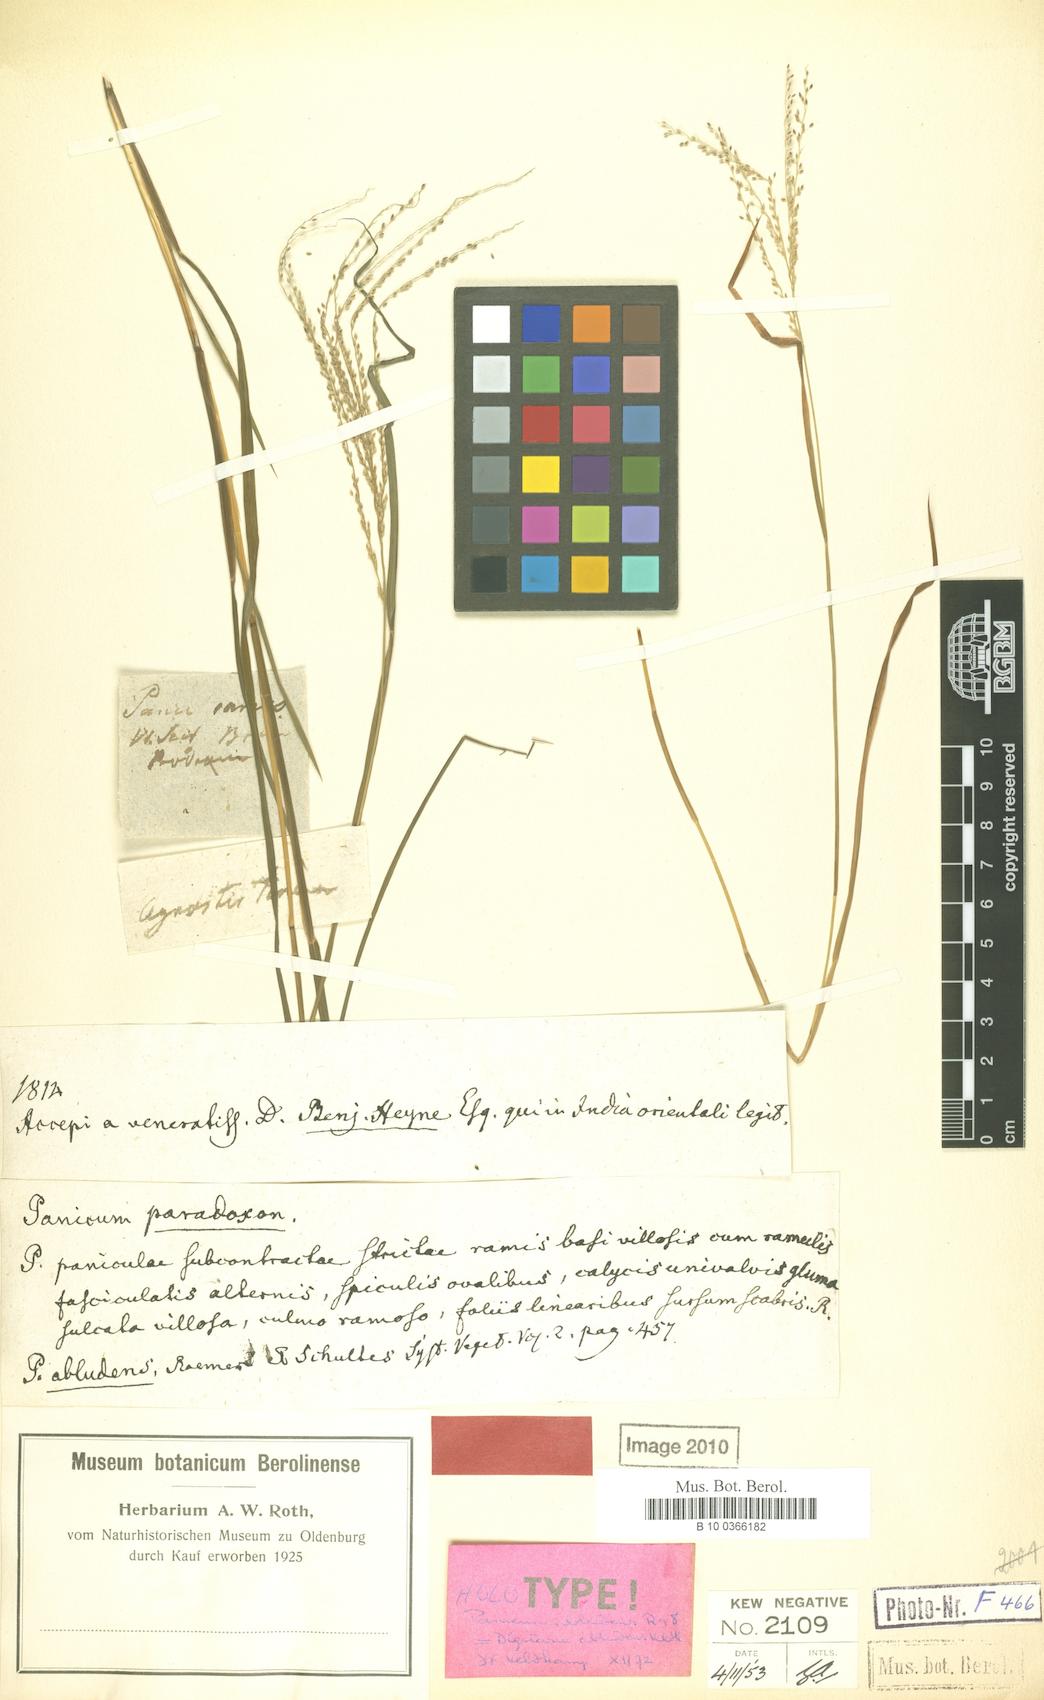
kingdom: Plantae
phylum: Tracheophyta
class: Liliopsida
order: Poales
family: Poaceae
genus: Digitaria
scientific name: Digitaria abludens
